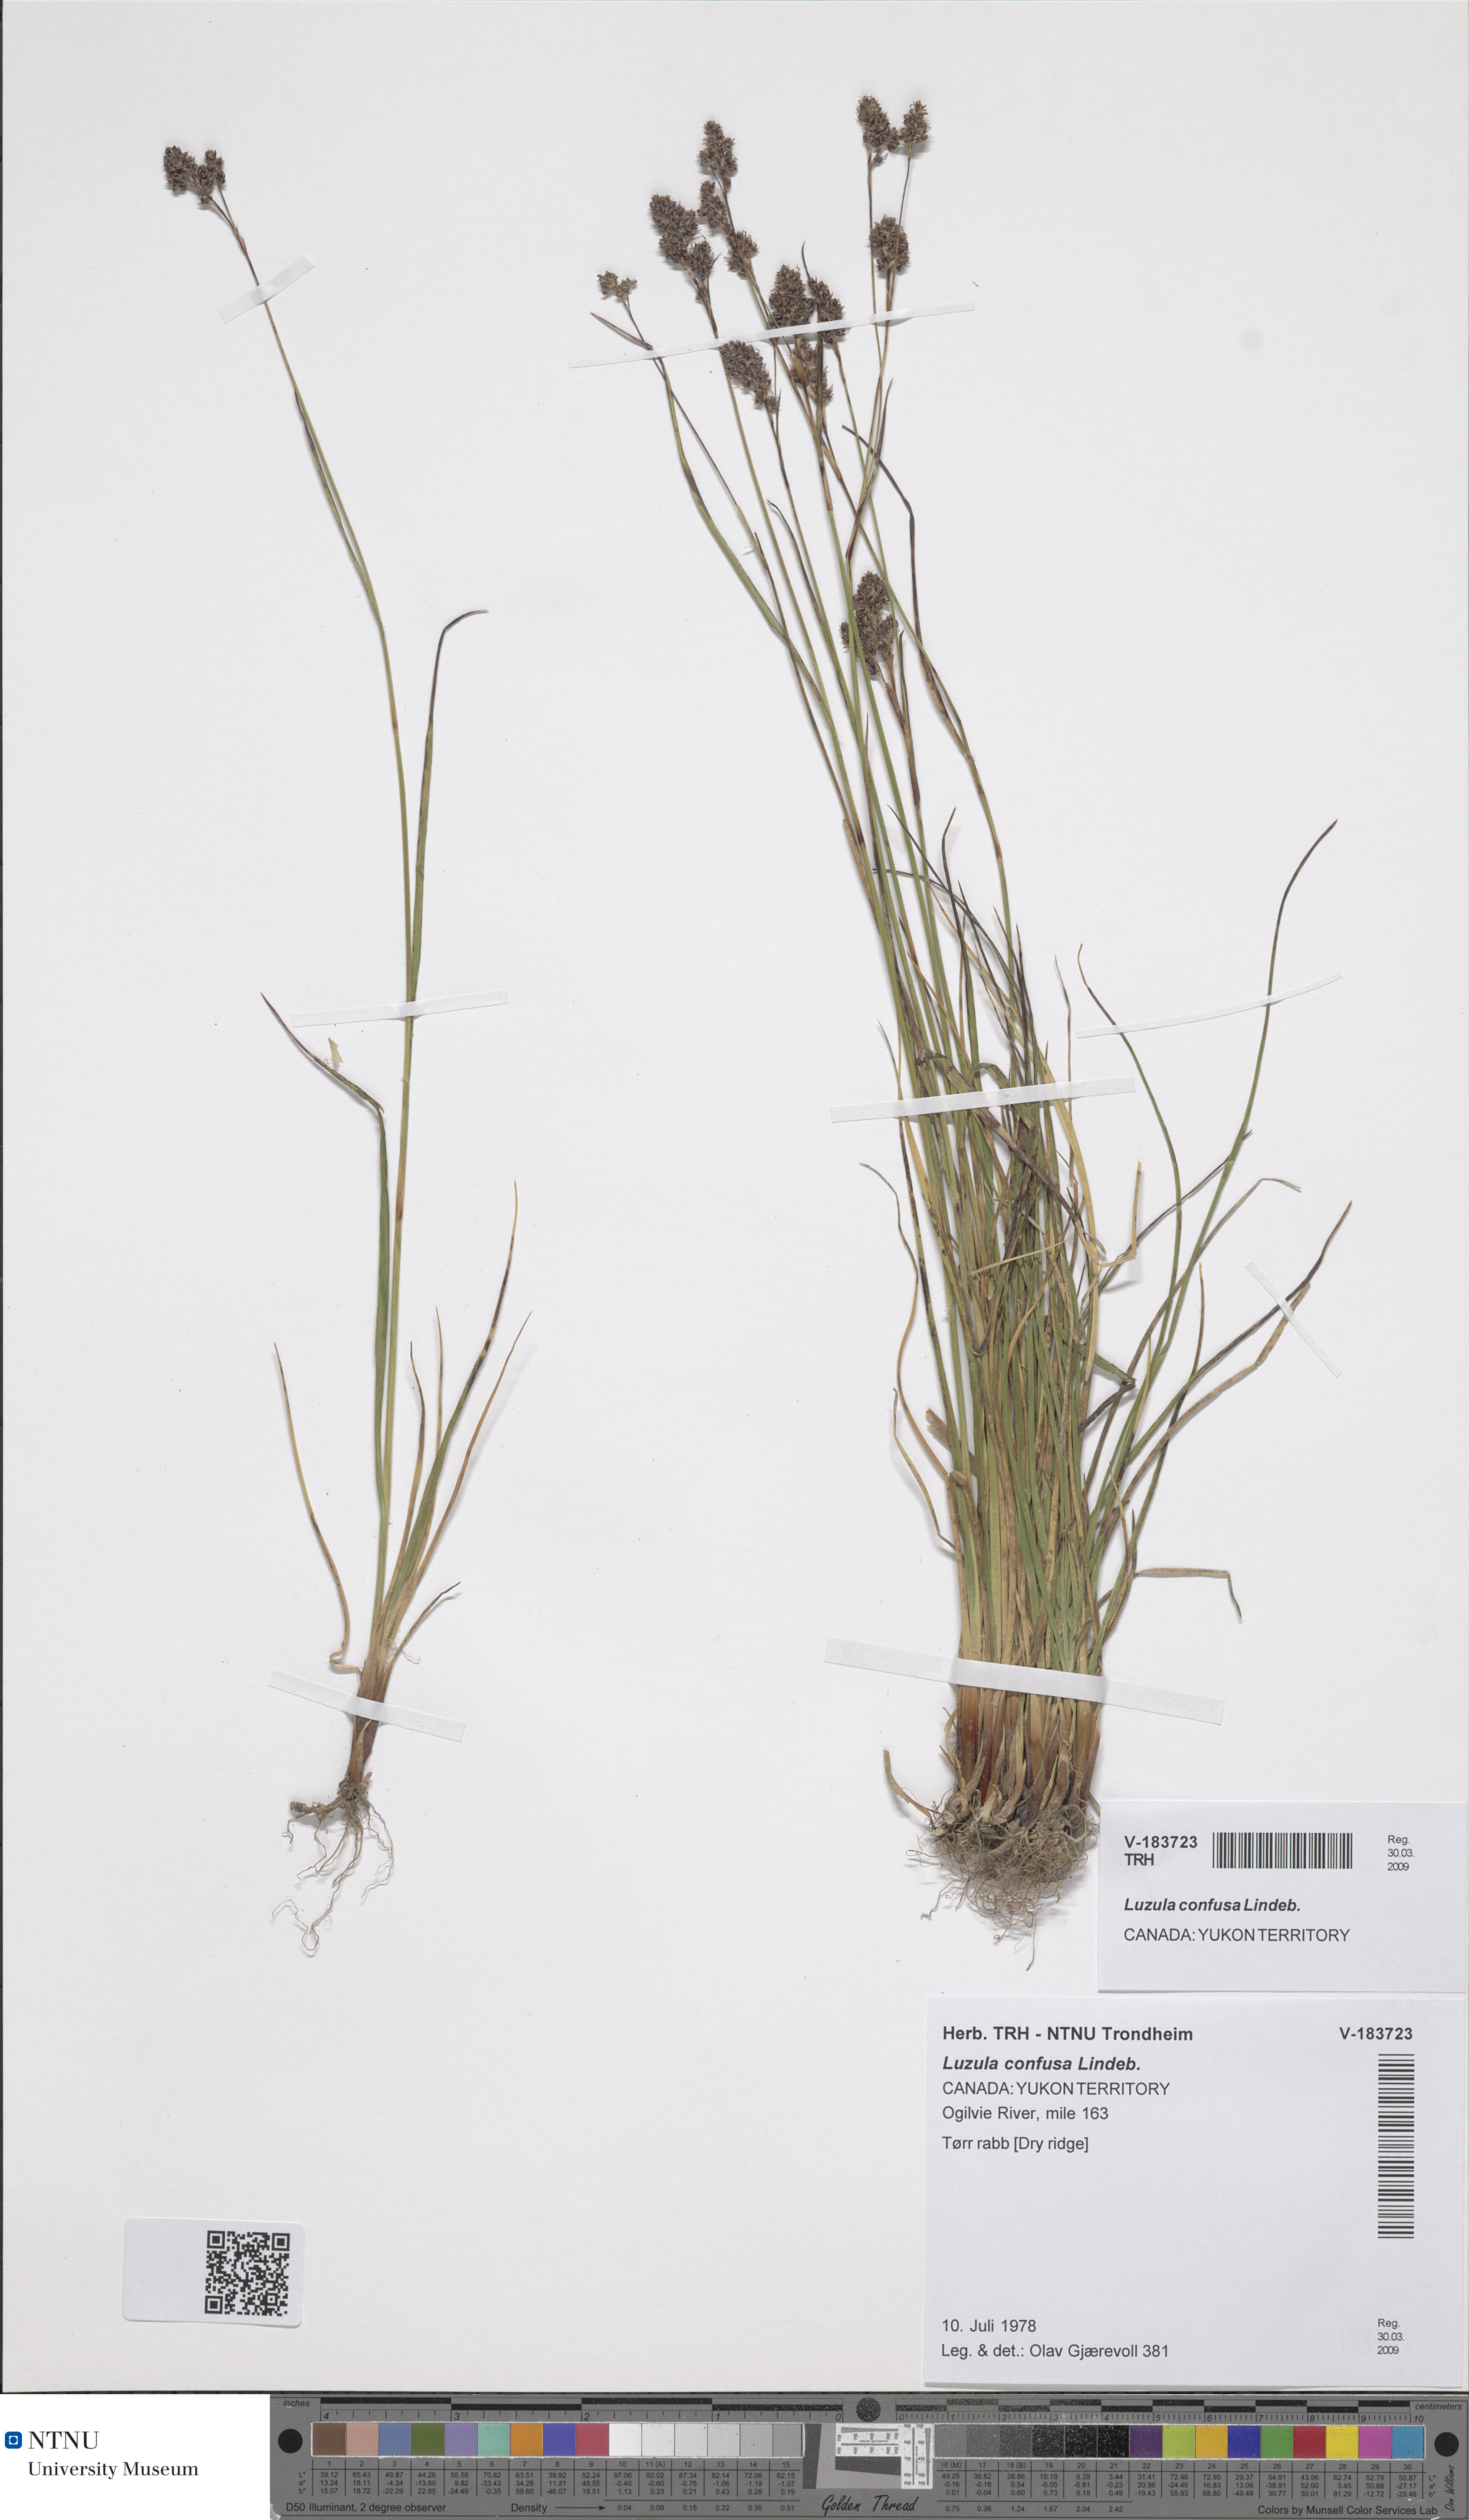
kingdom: Plantae
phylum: Tracheophyta
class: Liliopsida
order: Poales
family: Juncaceae
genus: Luzula
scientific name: Luzula confusa
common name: Northern wood rush
